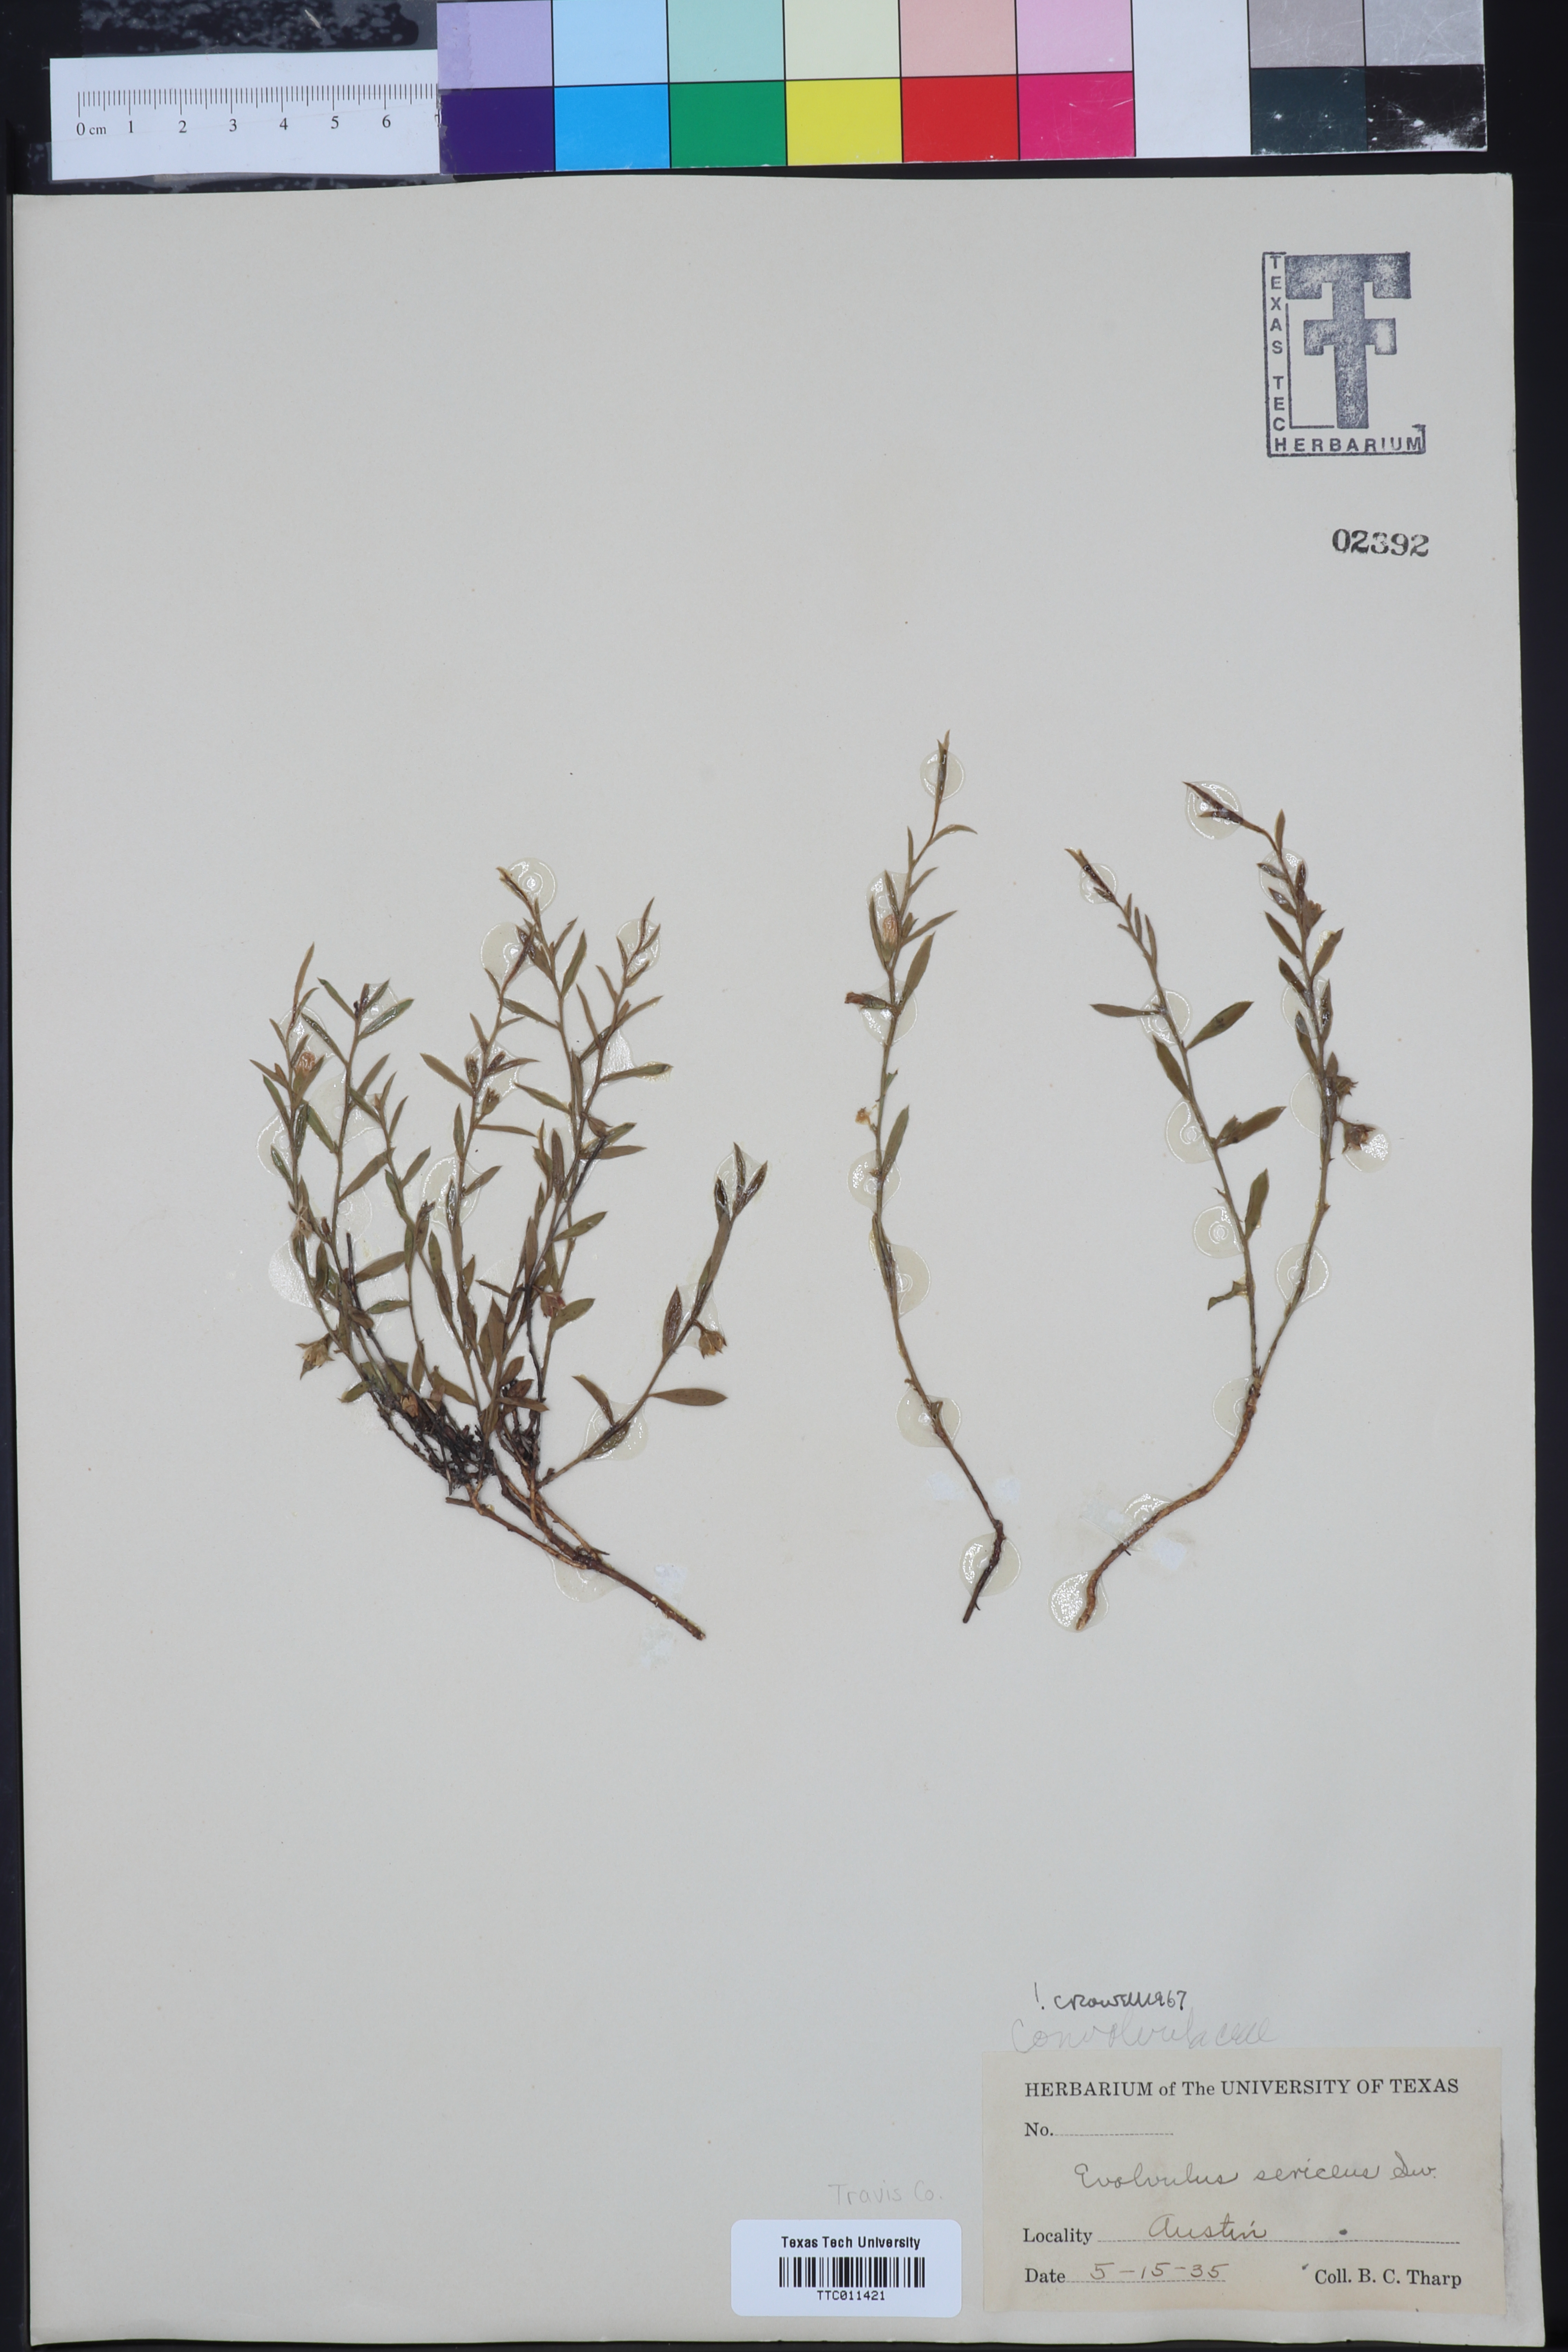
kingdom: Plantae
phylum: Tracheophyta
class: Magnoliopsida
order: Solanales
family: Convolvulaceae
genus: Evolvulus
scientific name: Evolvulus sericeus
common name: Blue dots
